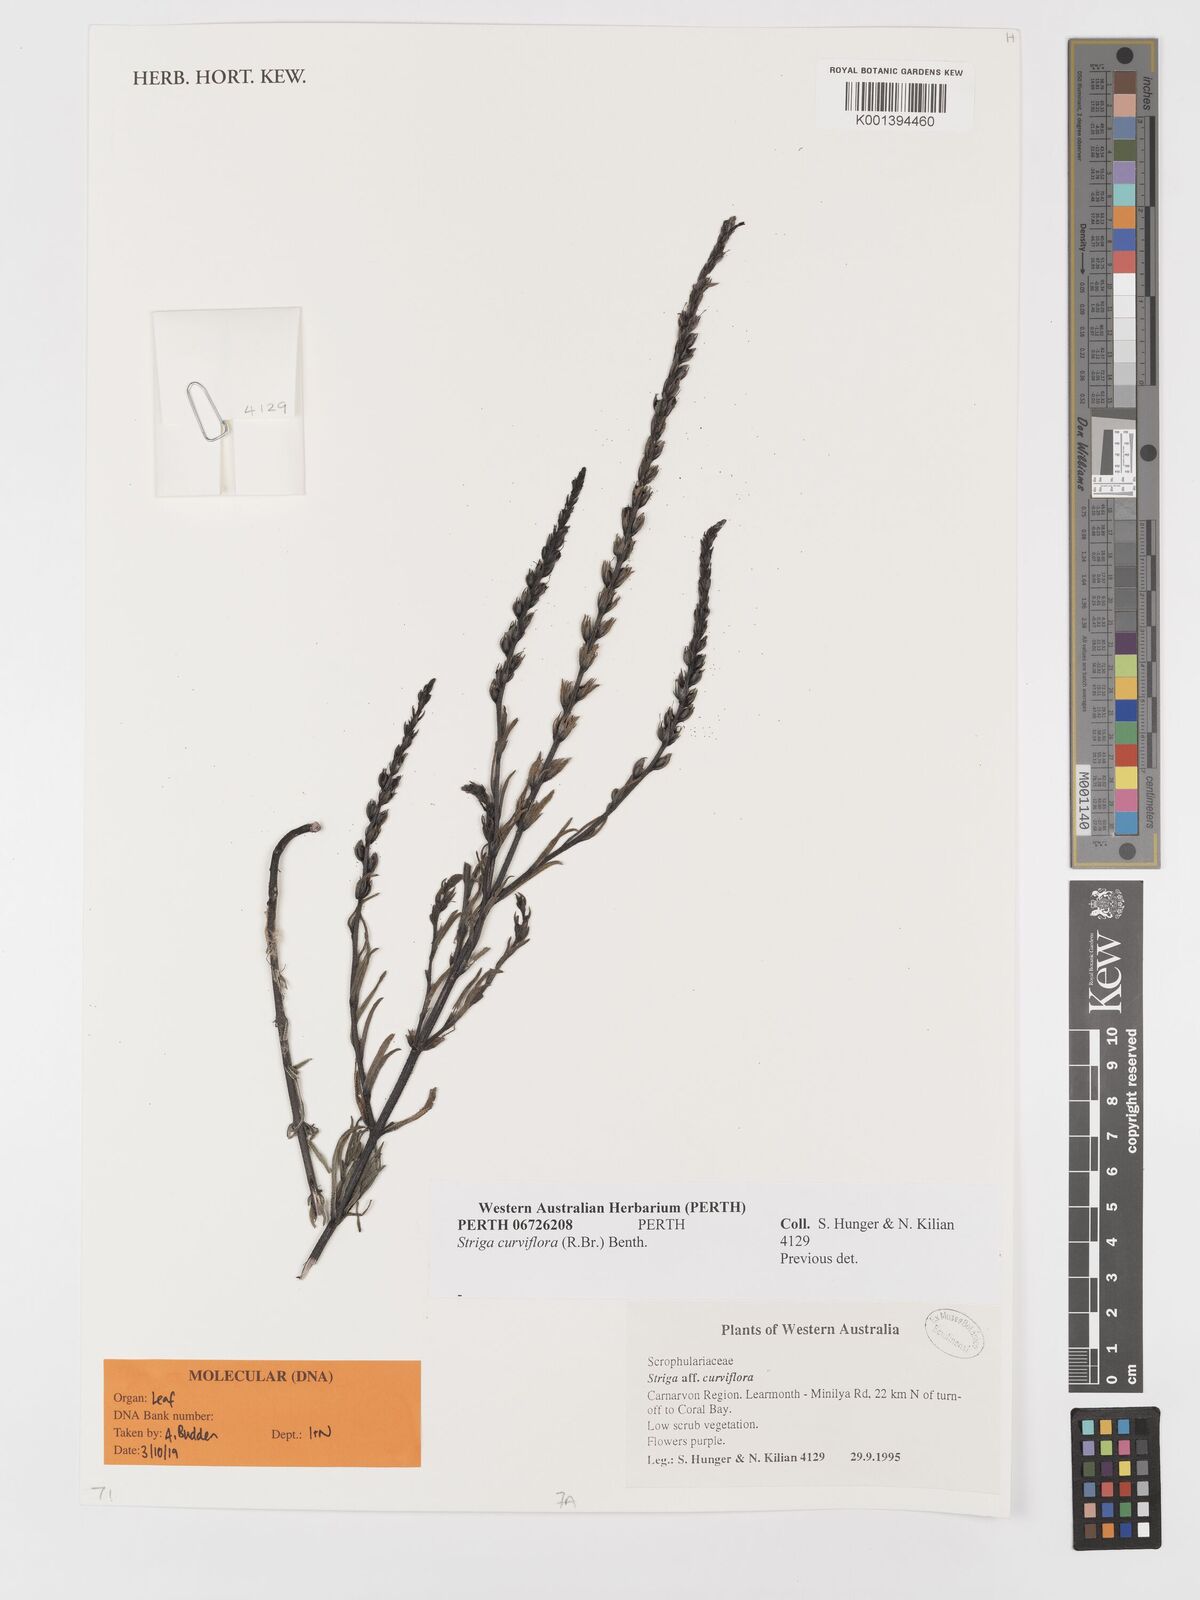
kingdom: Plantae
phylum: Tracheophyta
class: Magnoliopsida
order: Lamiales
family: Orobanchaceae
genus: Striga
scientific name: Striga curviflora
